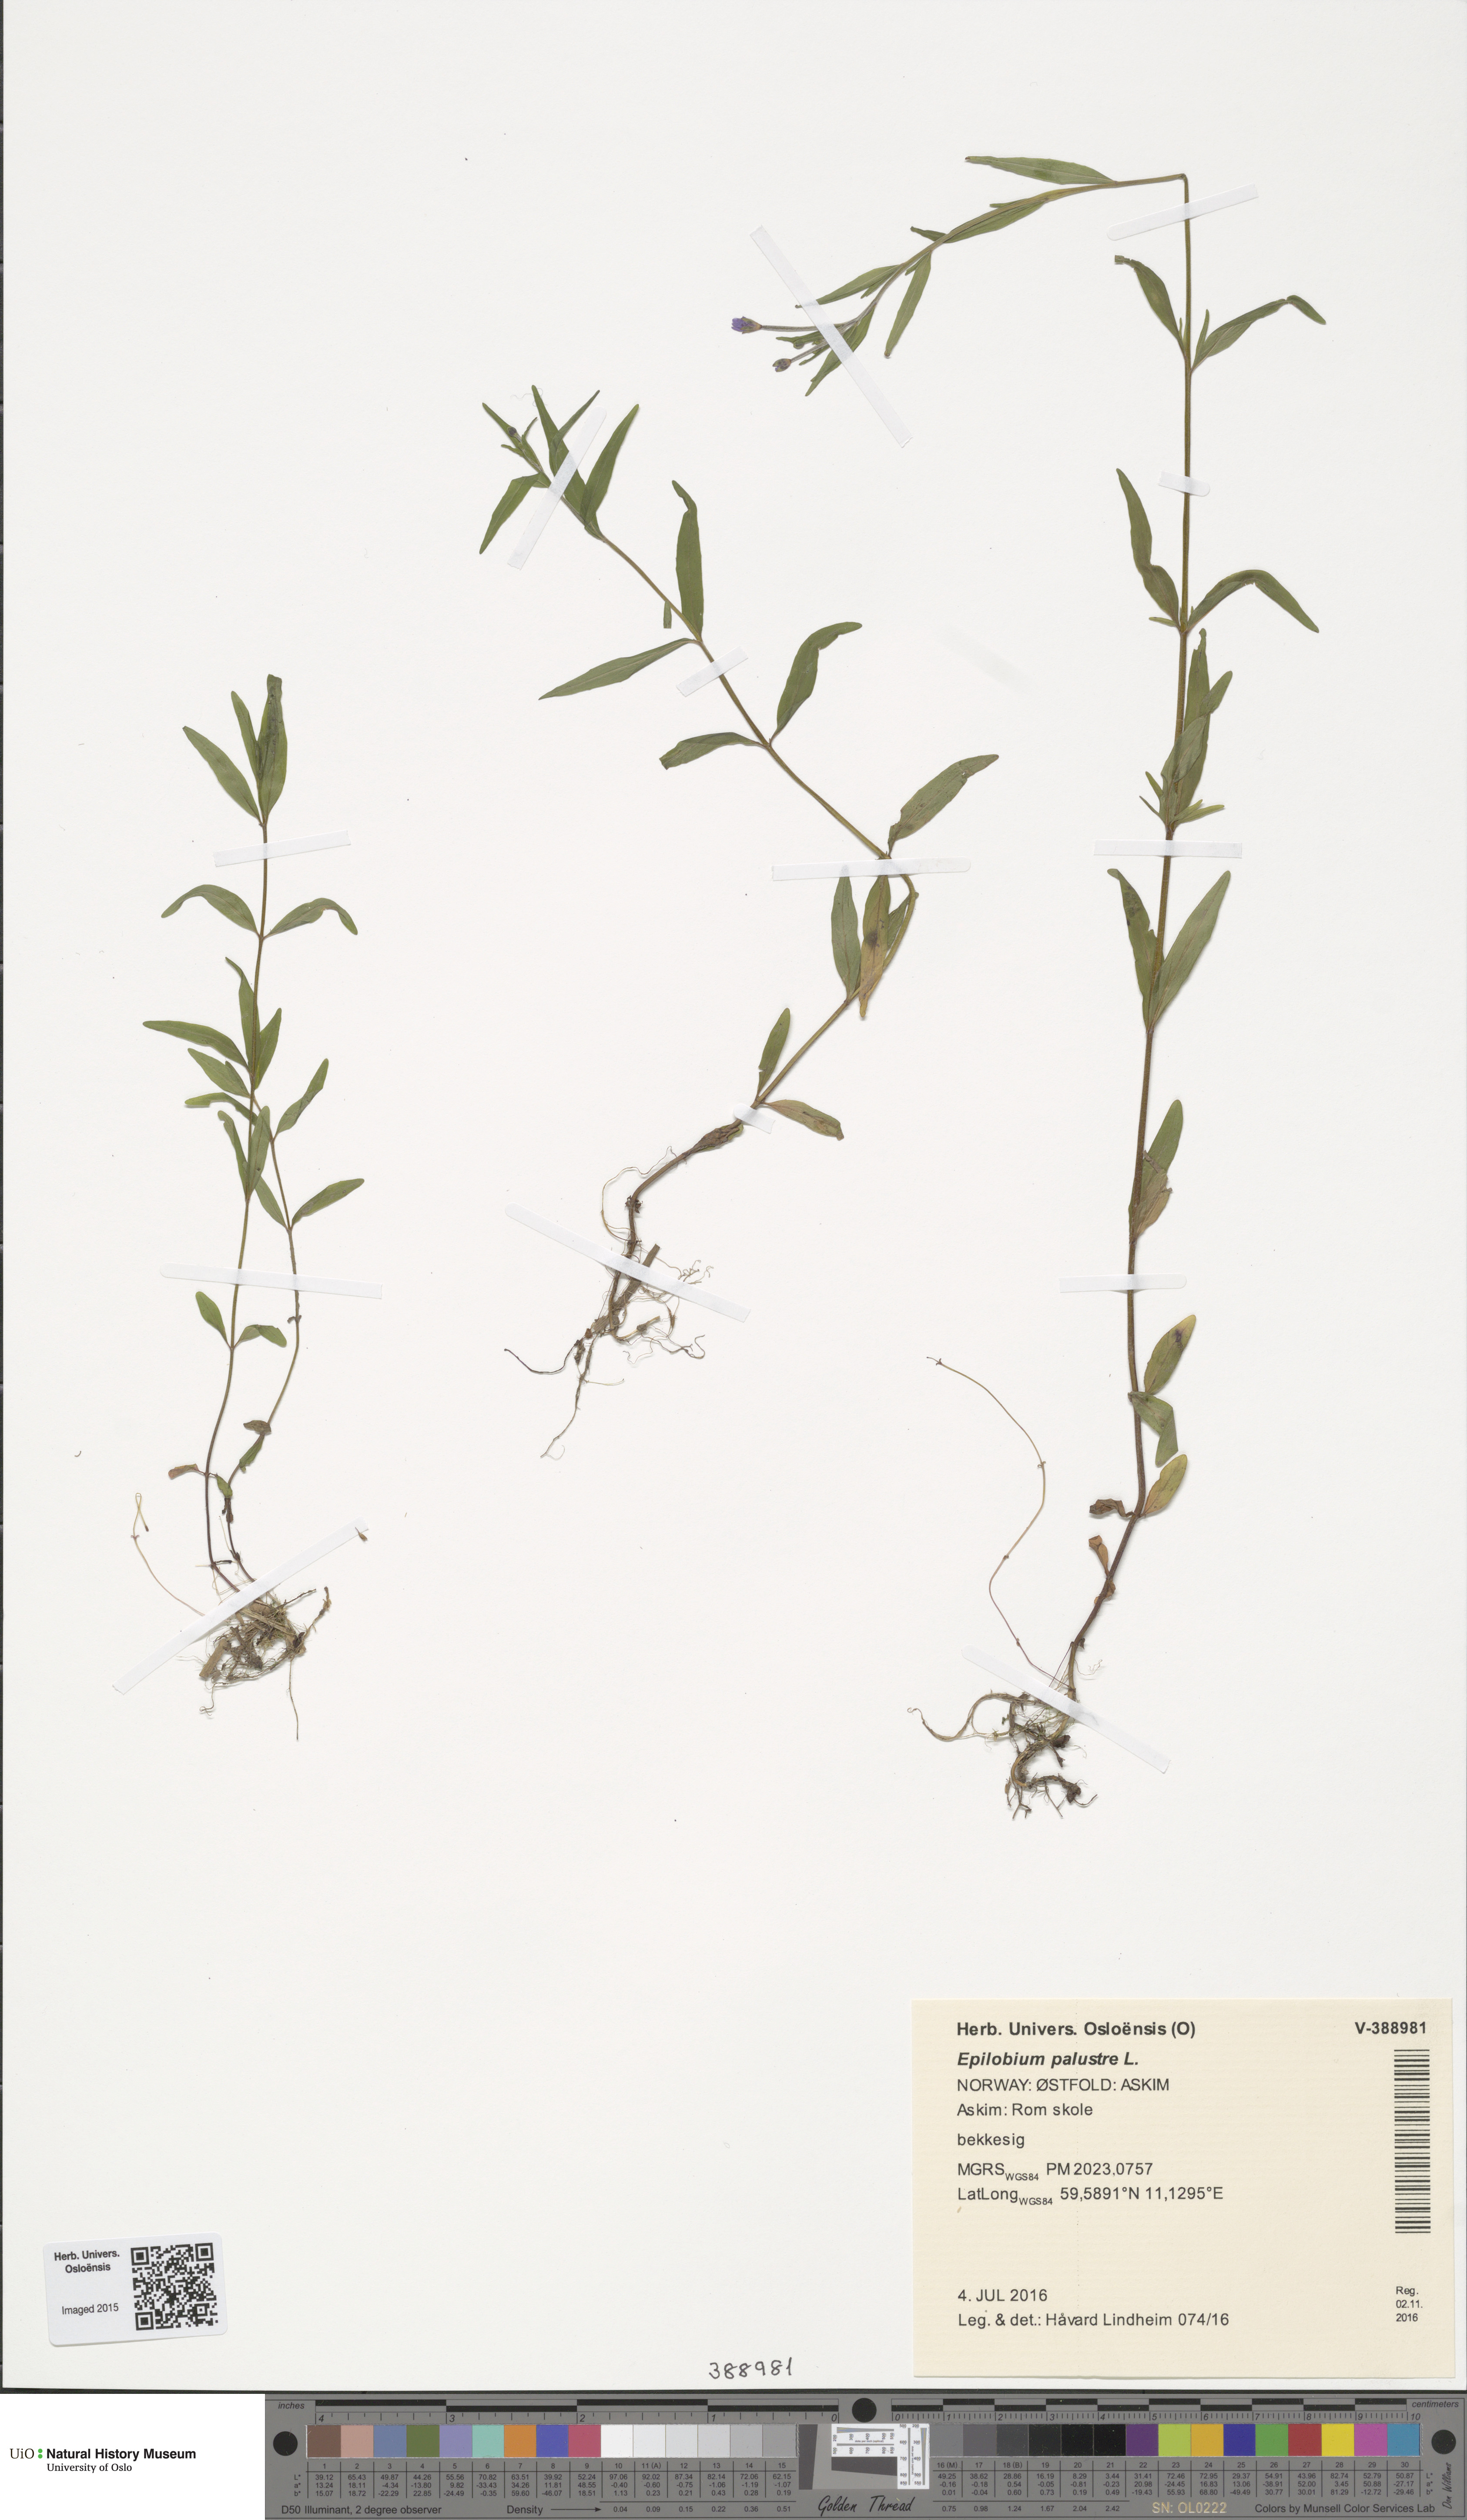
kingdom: Plantae
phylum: Tracheophyta
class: Magnoliopsida
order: Myrtales
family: Onagraceae
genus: Epilobium
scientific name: Epilobium palustre
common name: Marsh willowherb
